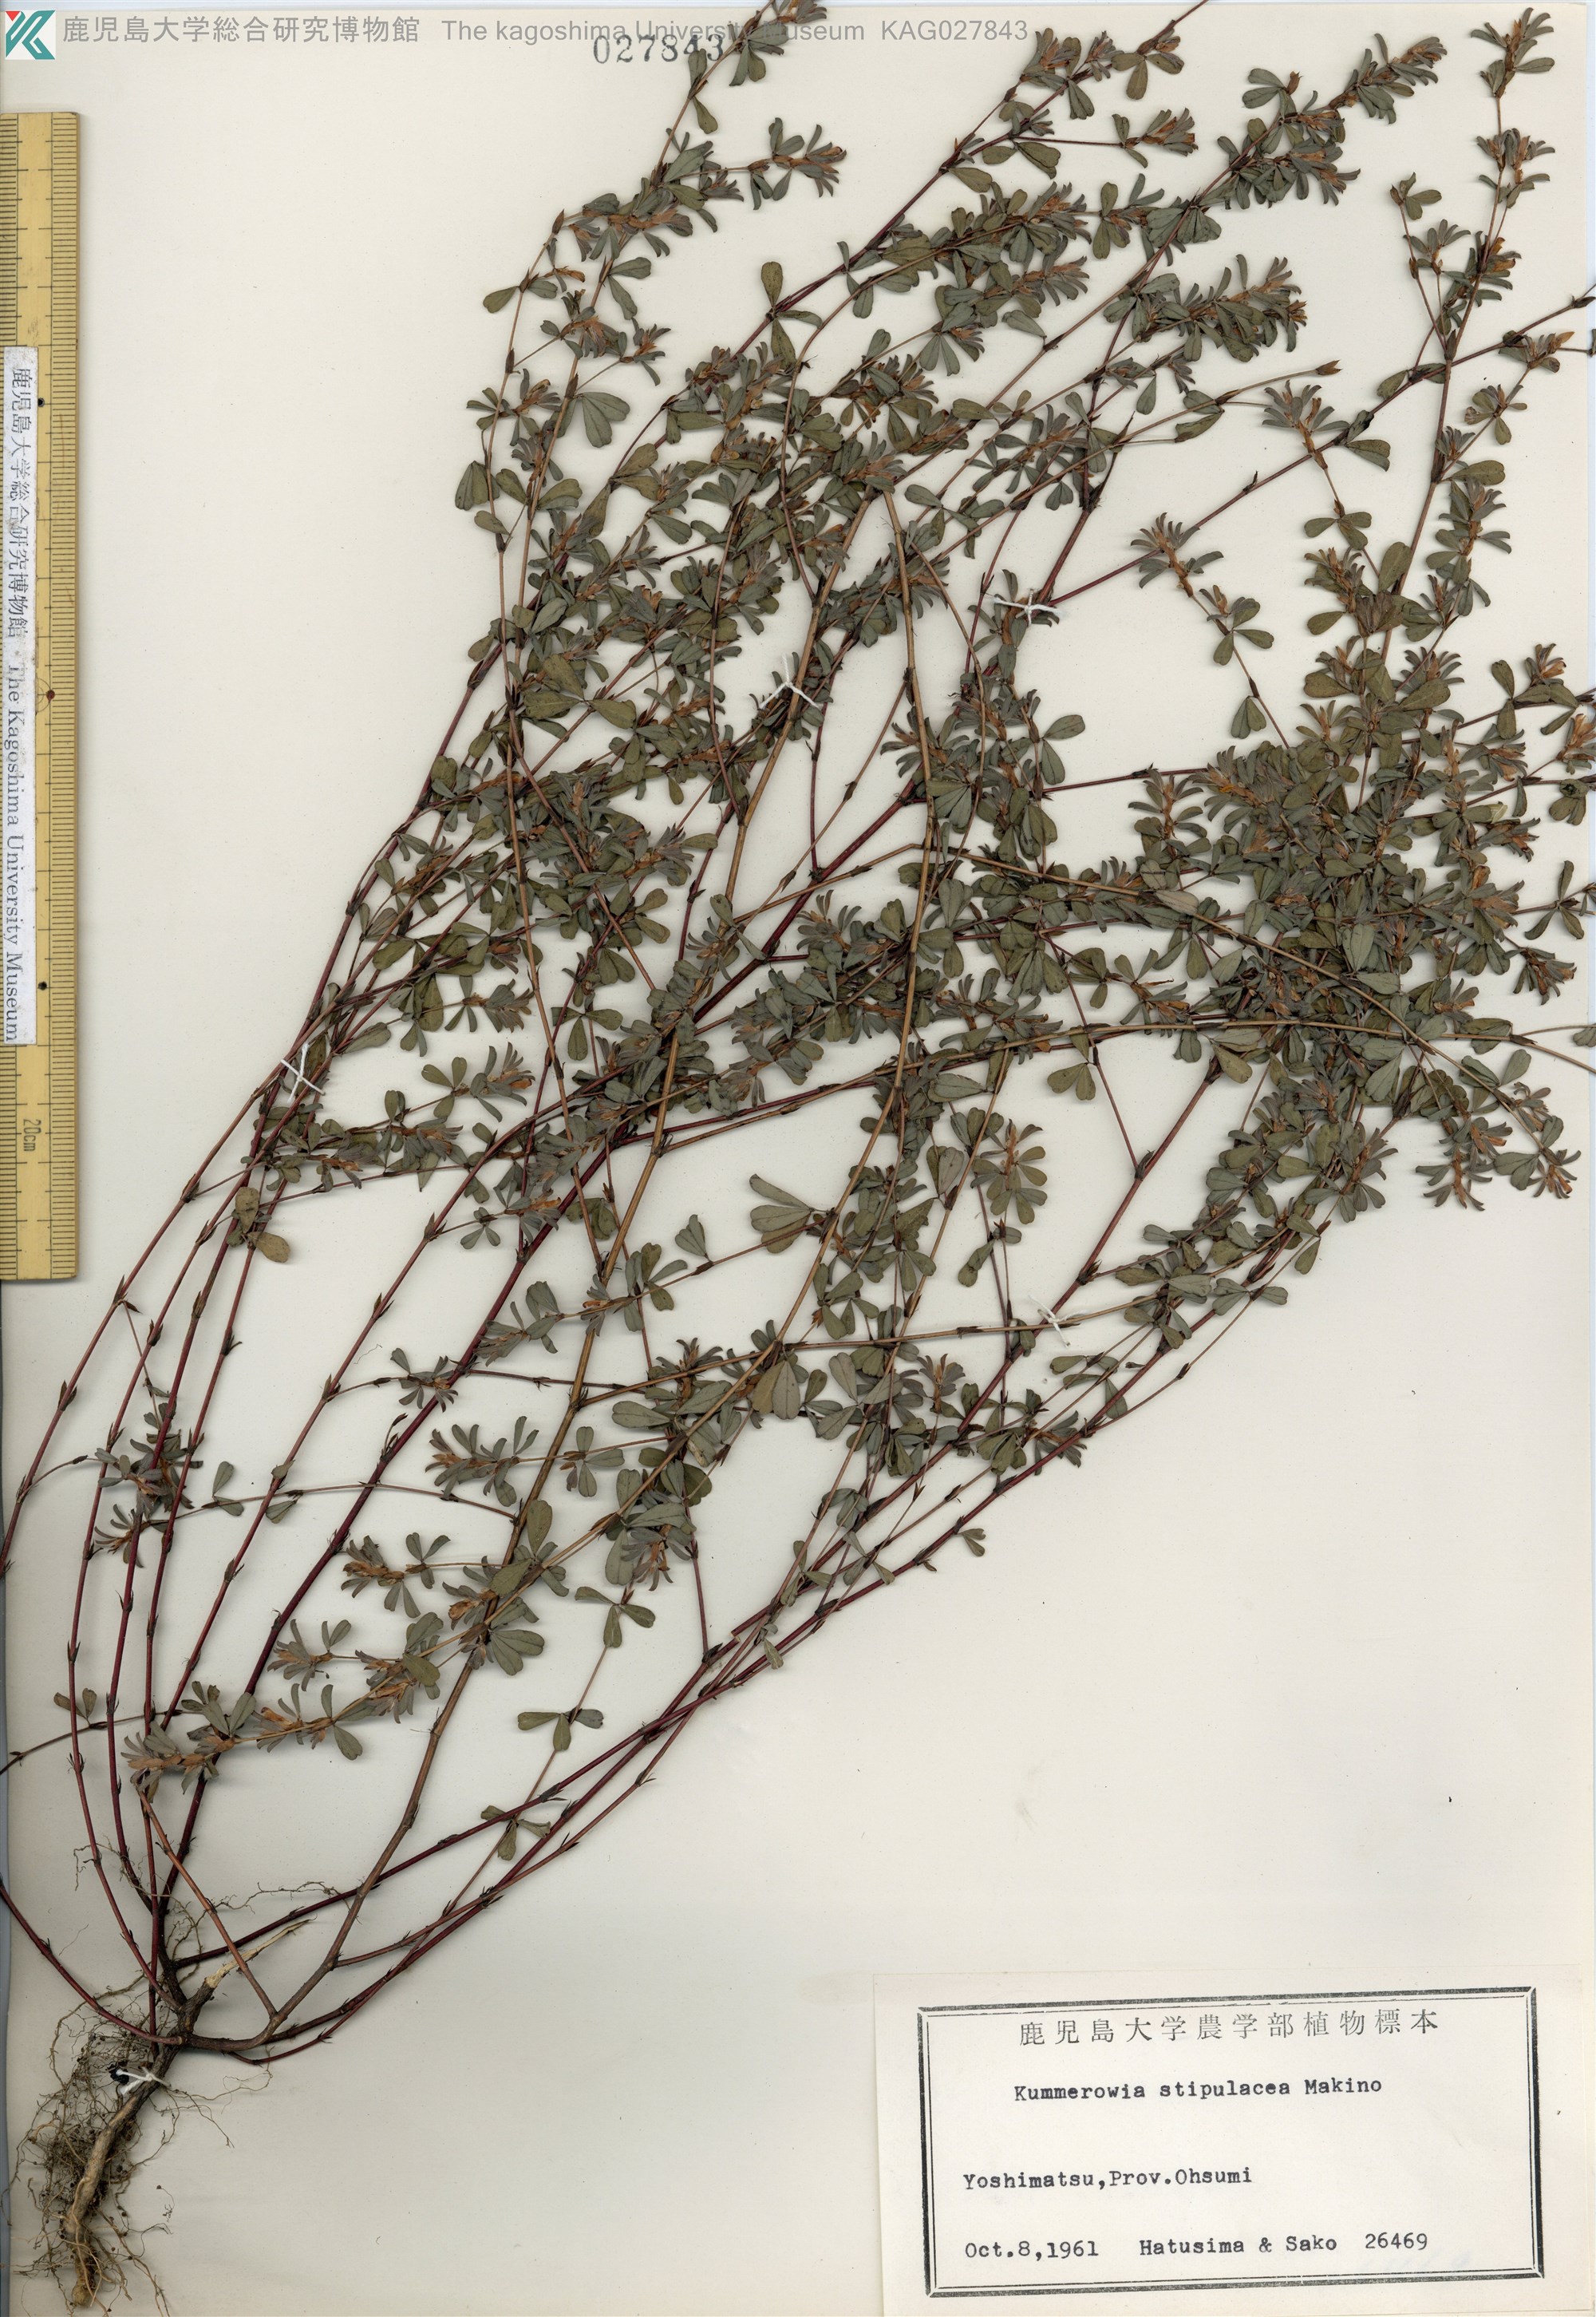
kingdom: Plantae
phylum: Tracheophyta
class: Magnoliopsida
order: Fabales
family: Fabaceae
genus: Kummerowia
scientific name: Kummerowia stipulacea
